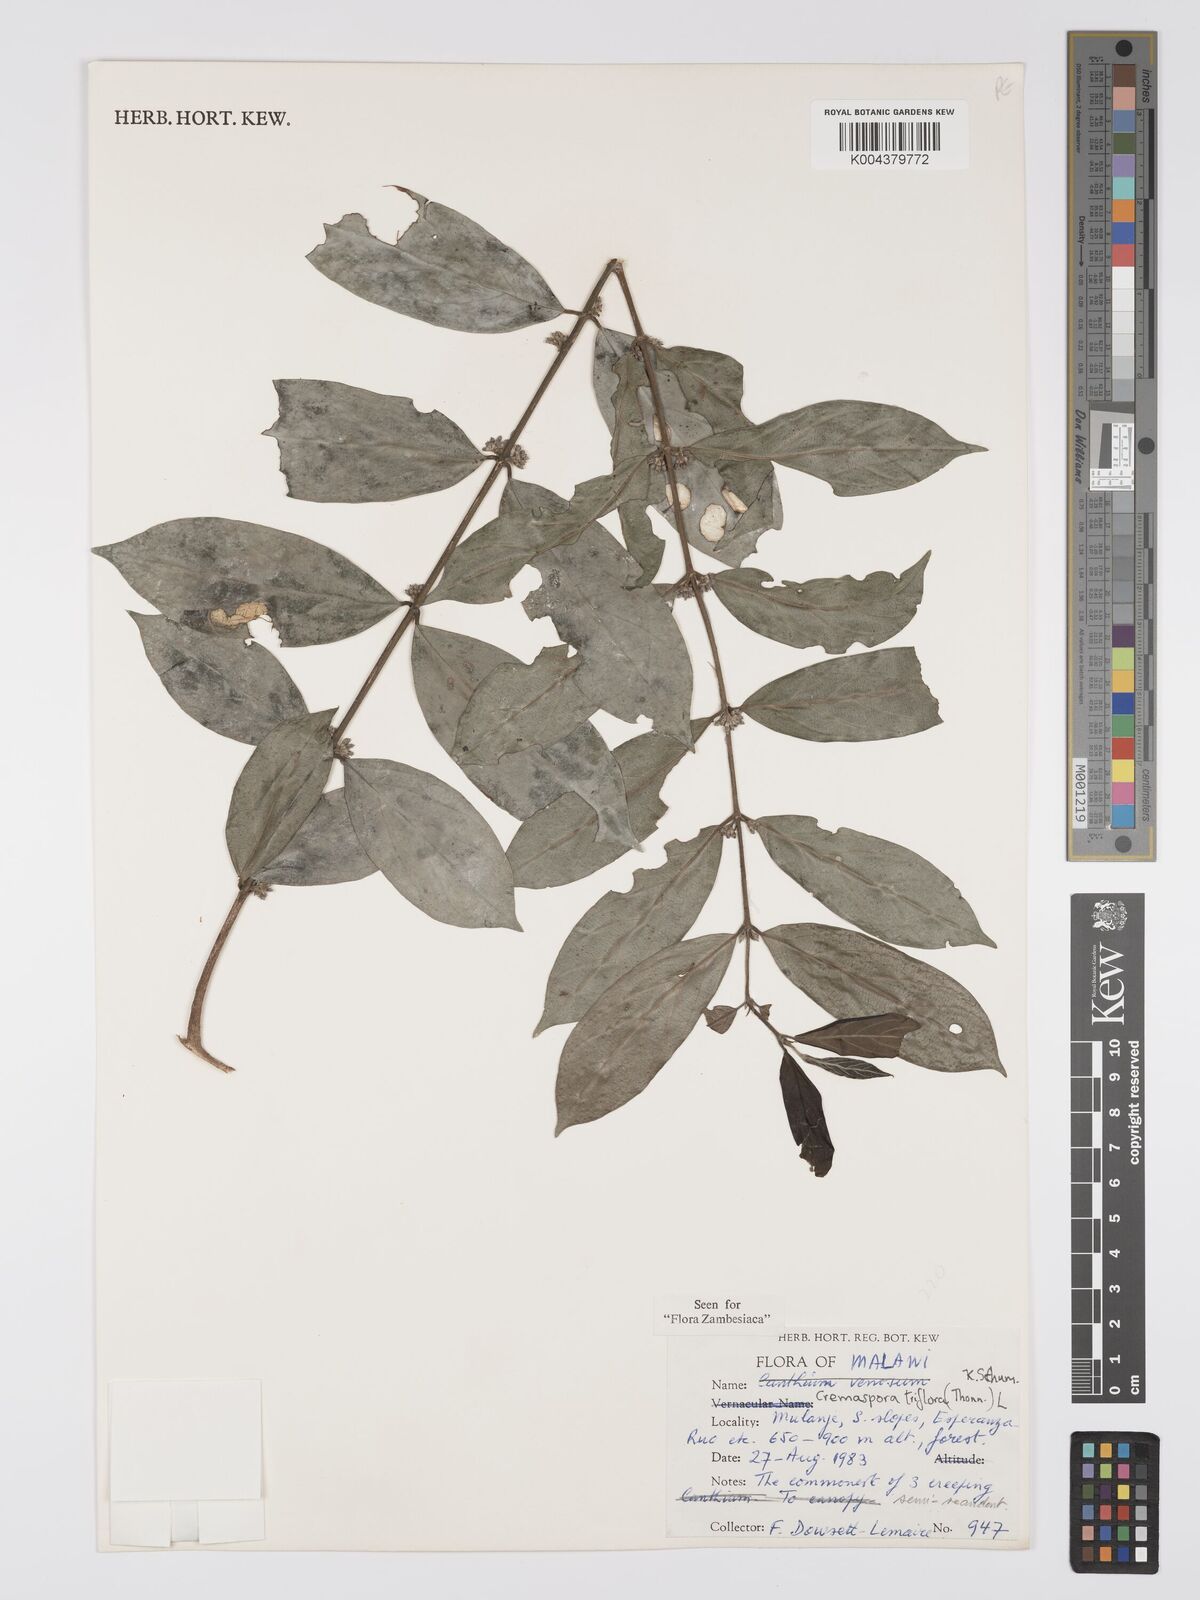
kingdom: Plantae
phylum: Tracheophyta
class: Magnoliopsida
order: Gentianales
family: Rubiaceae
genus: Cremaspora
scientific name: Cremaspora triflora
